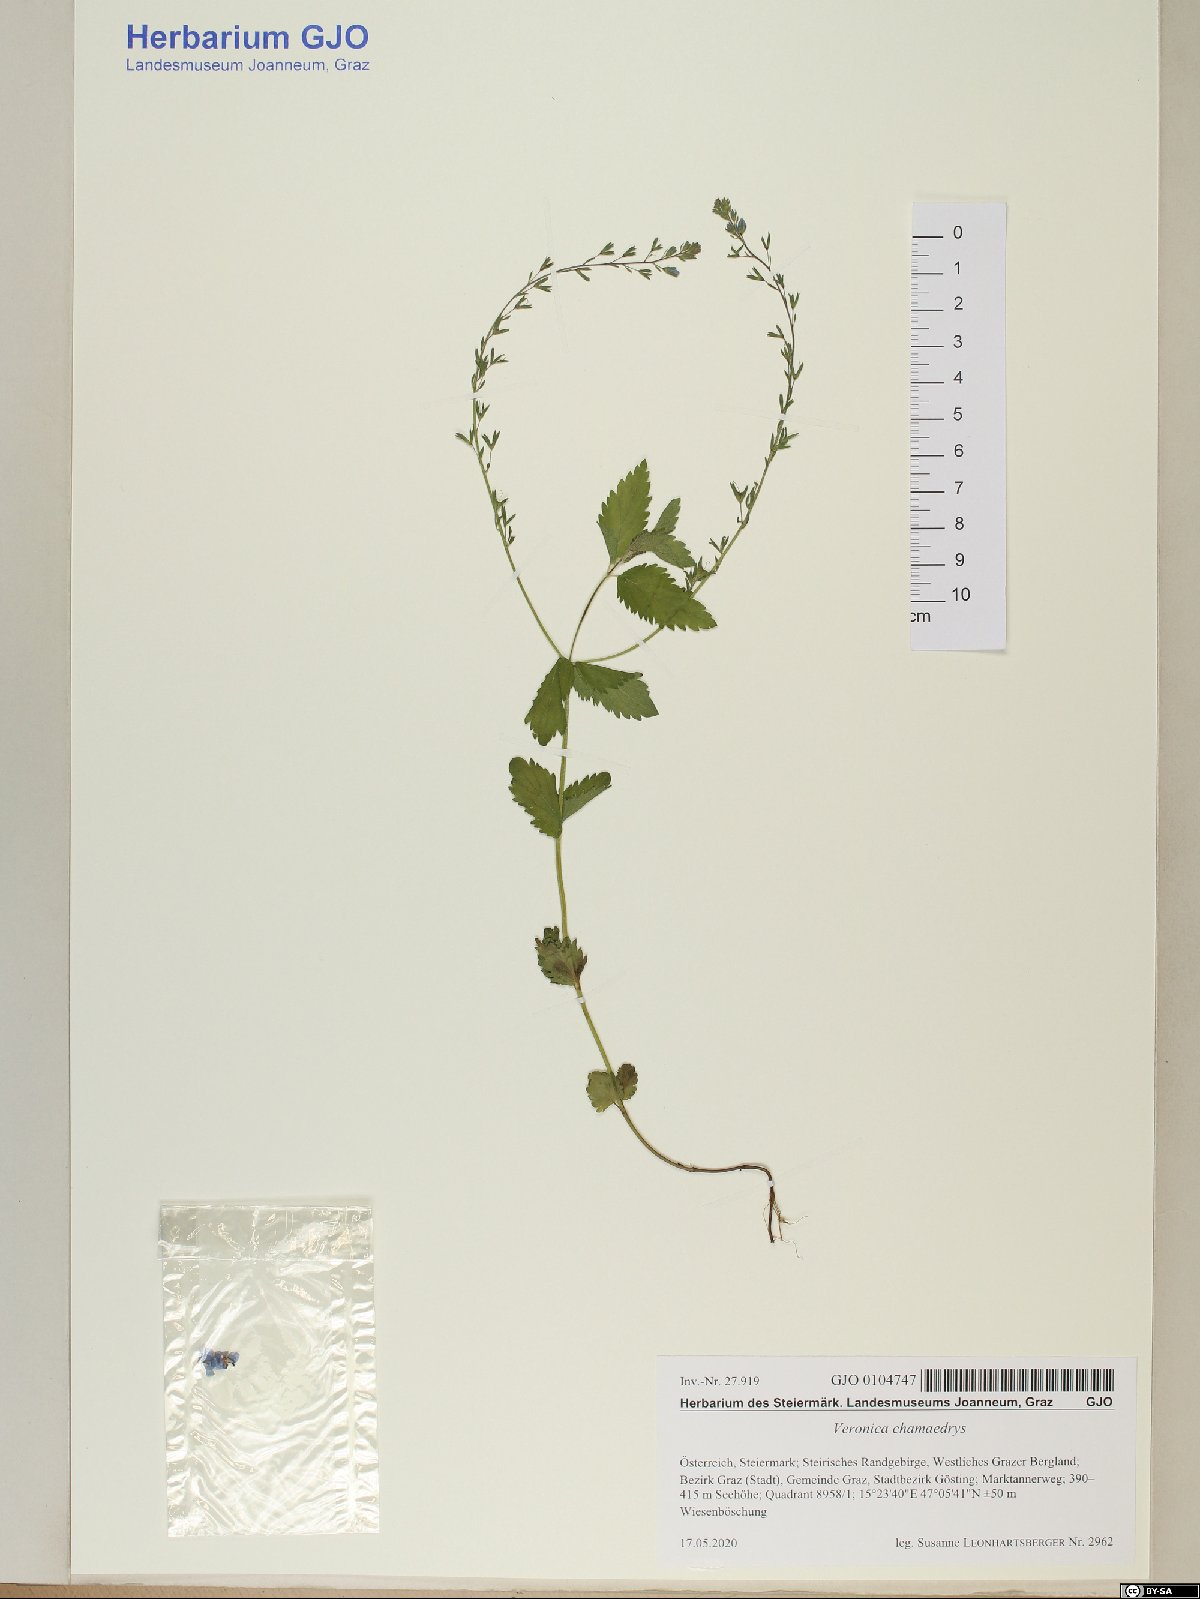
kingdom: Plantae
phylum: Tracheophyta
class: Magnoliopsida
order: Lamiales
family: Plantaginaceae
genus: Veronica
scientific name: Veronica chamaedrys
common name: Germander speedwell
